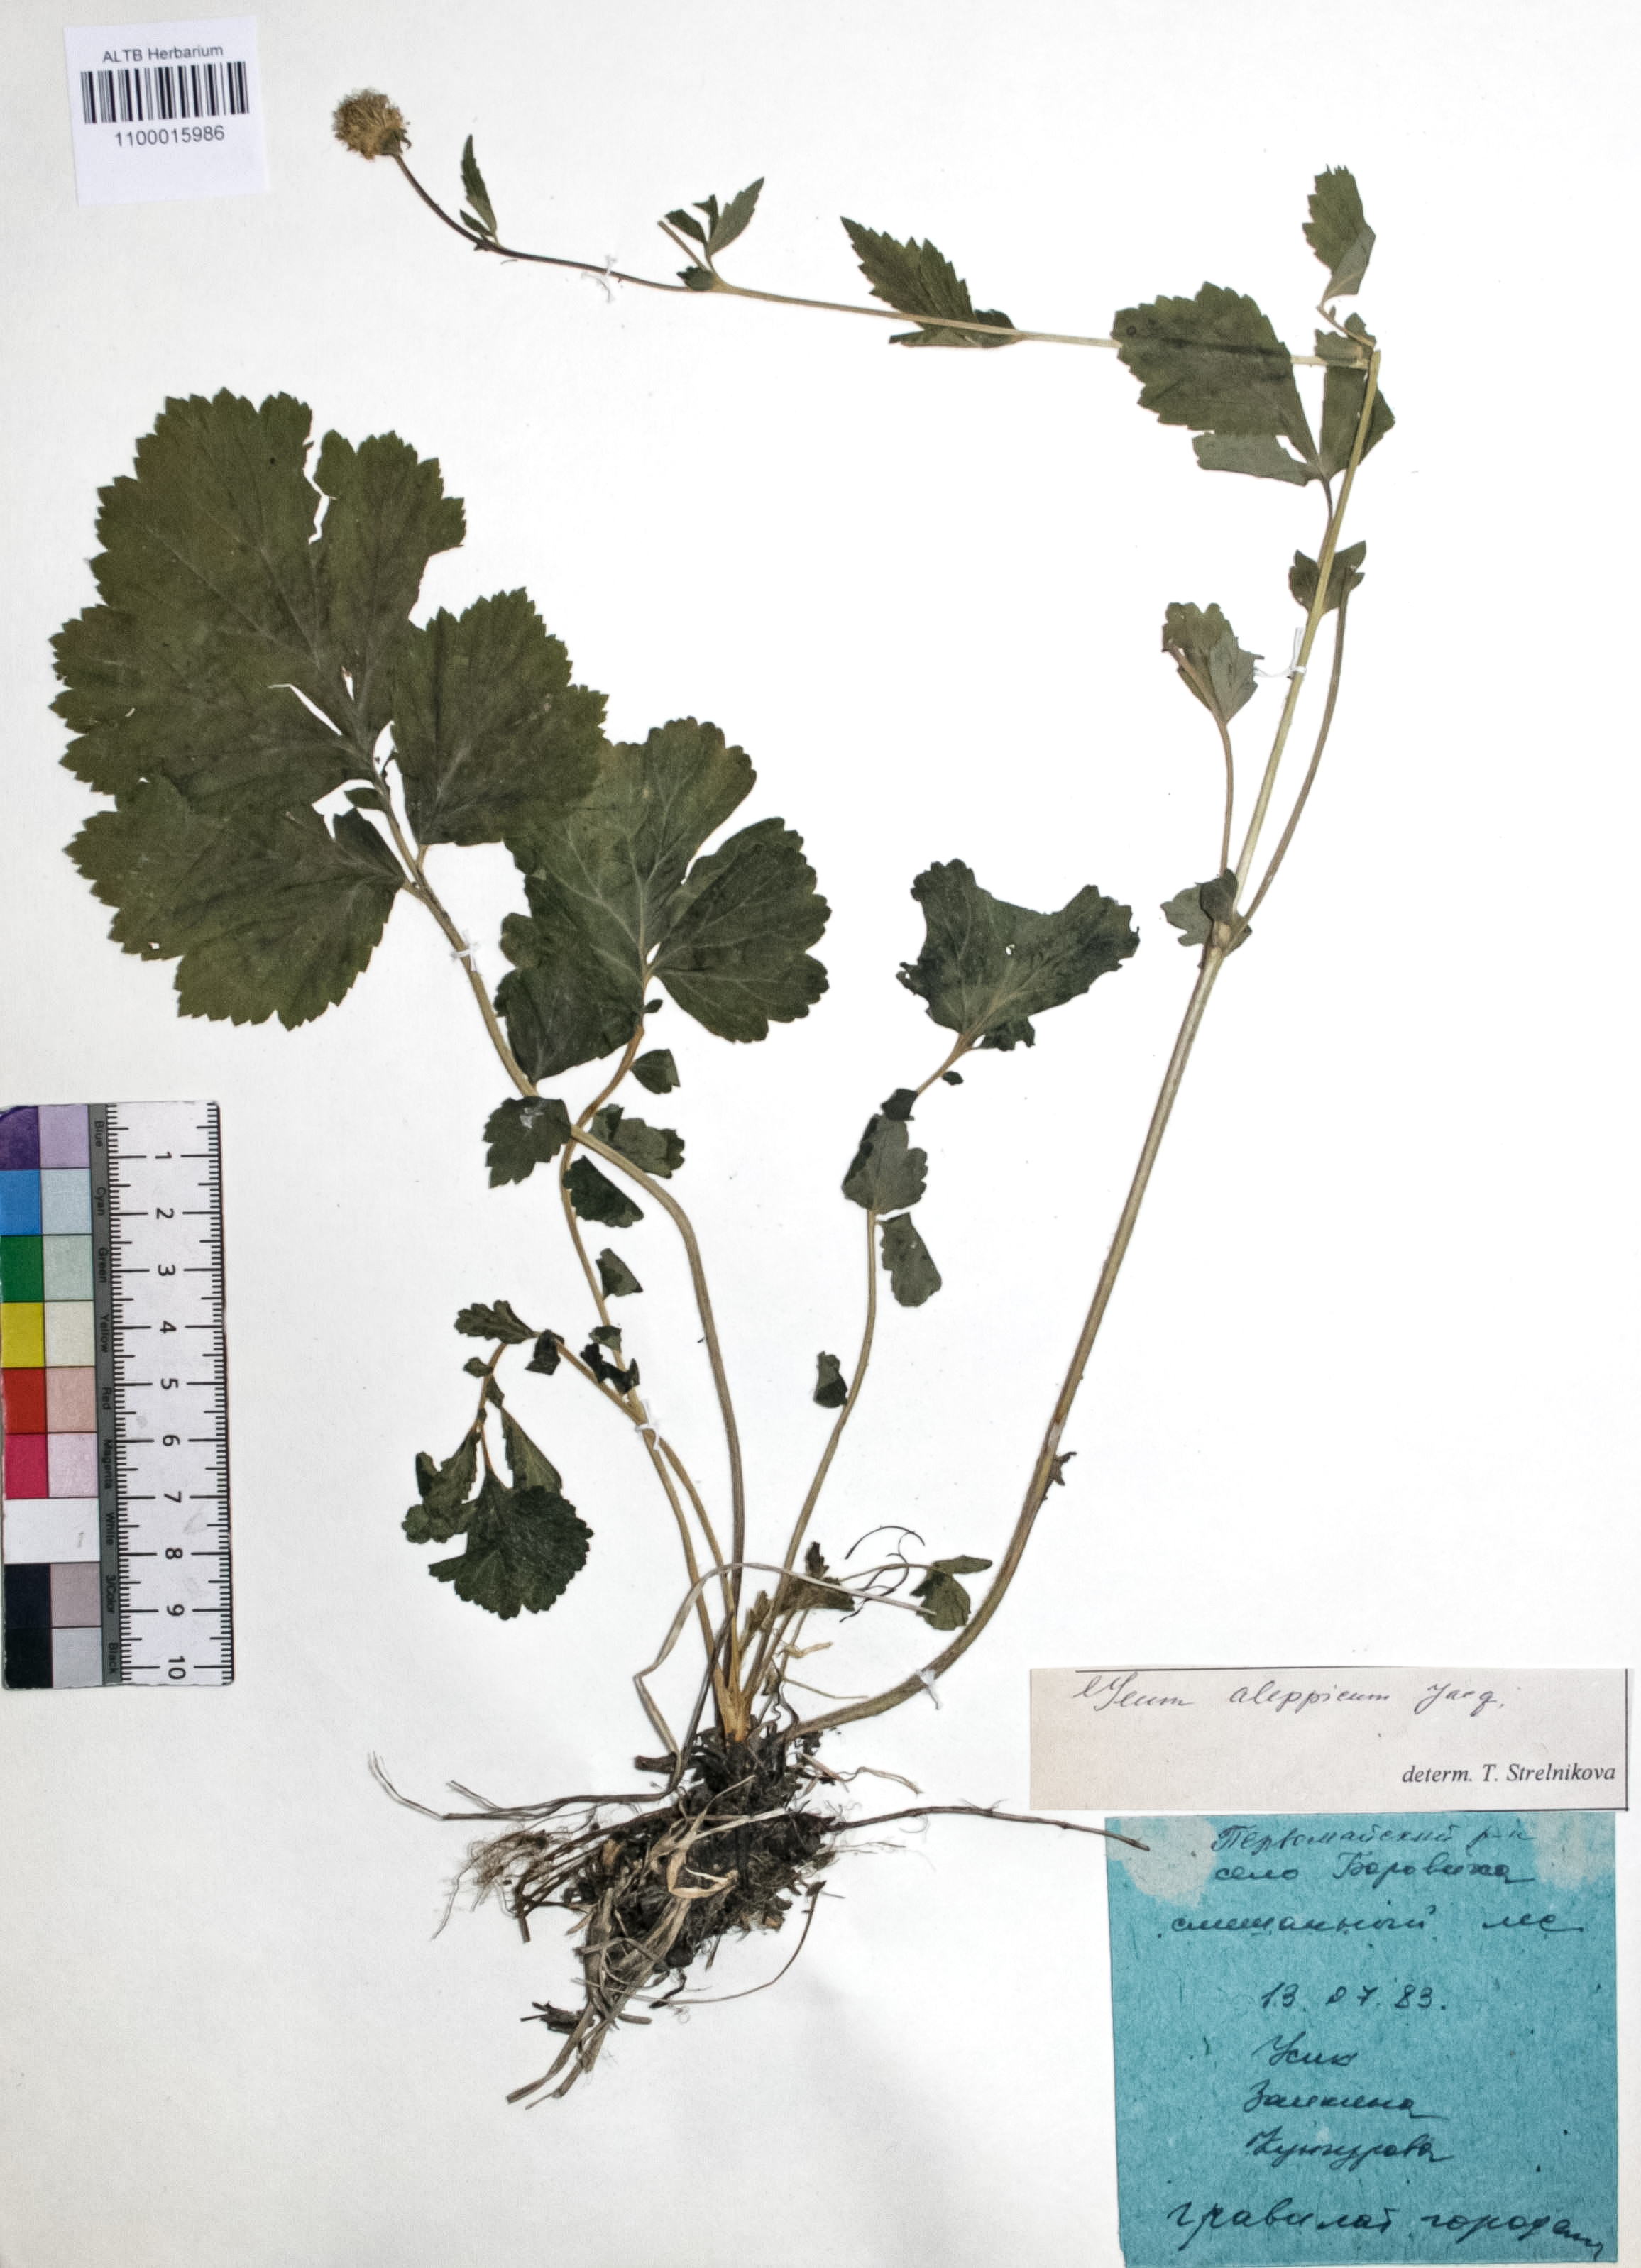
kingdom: Plantae
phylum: Tracheophyta
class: Magnoliopsida
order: Rosales
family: Rosaceae
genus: Geum
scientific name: Geum aleppicum
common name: Yellow avens
